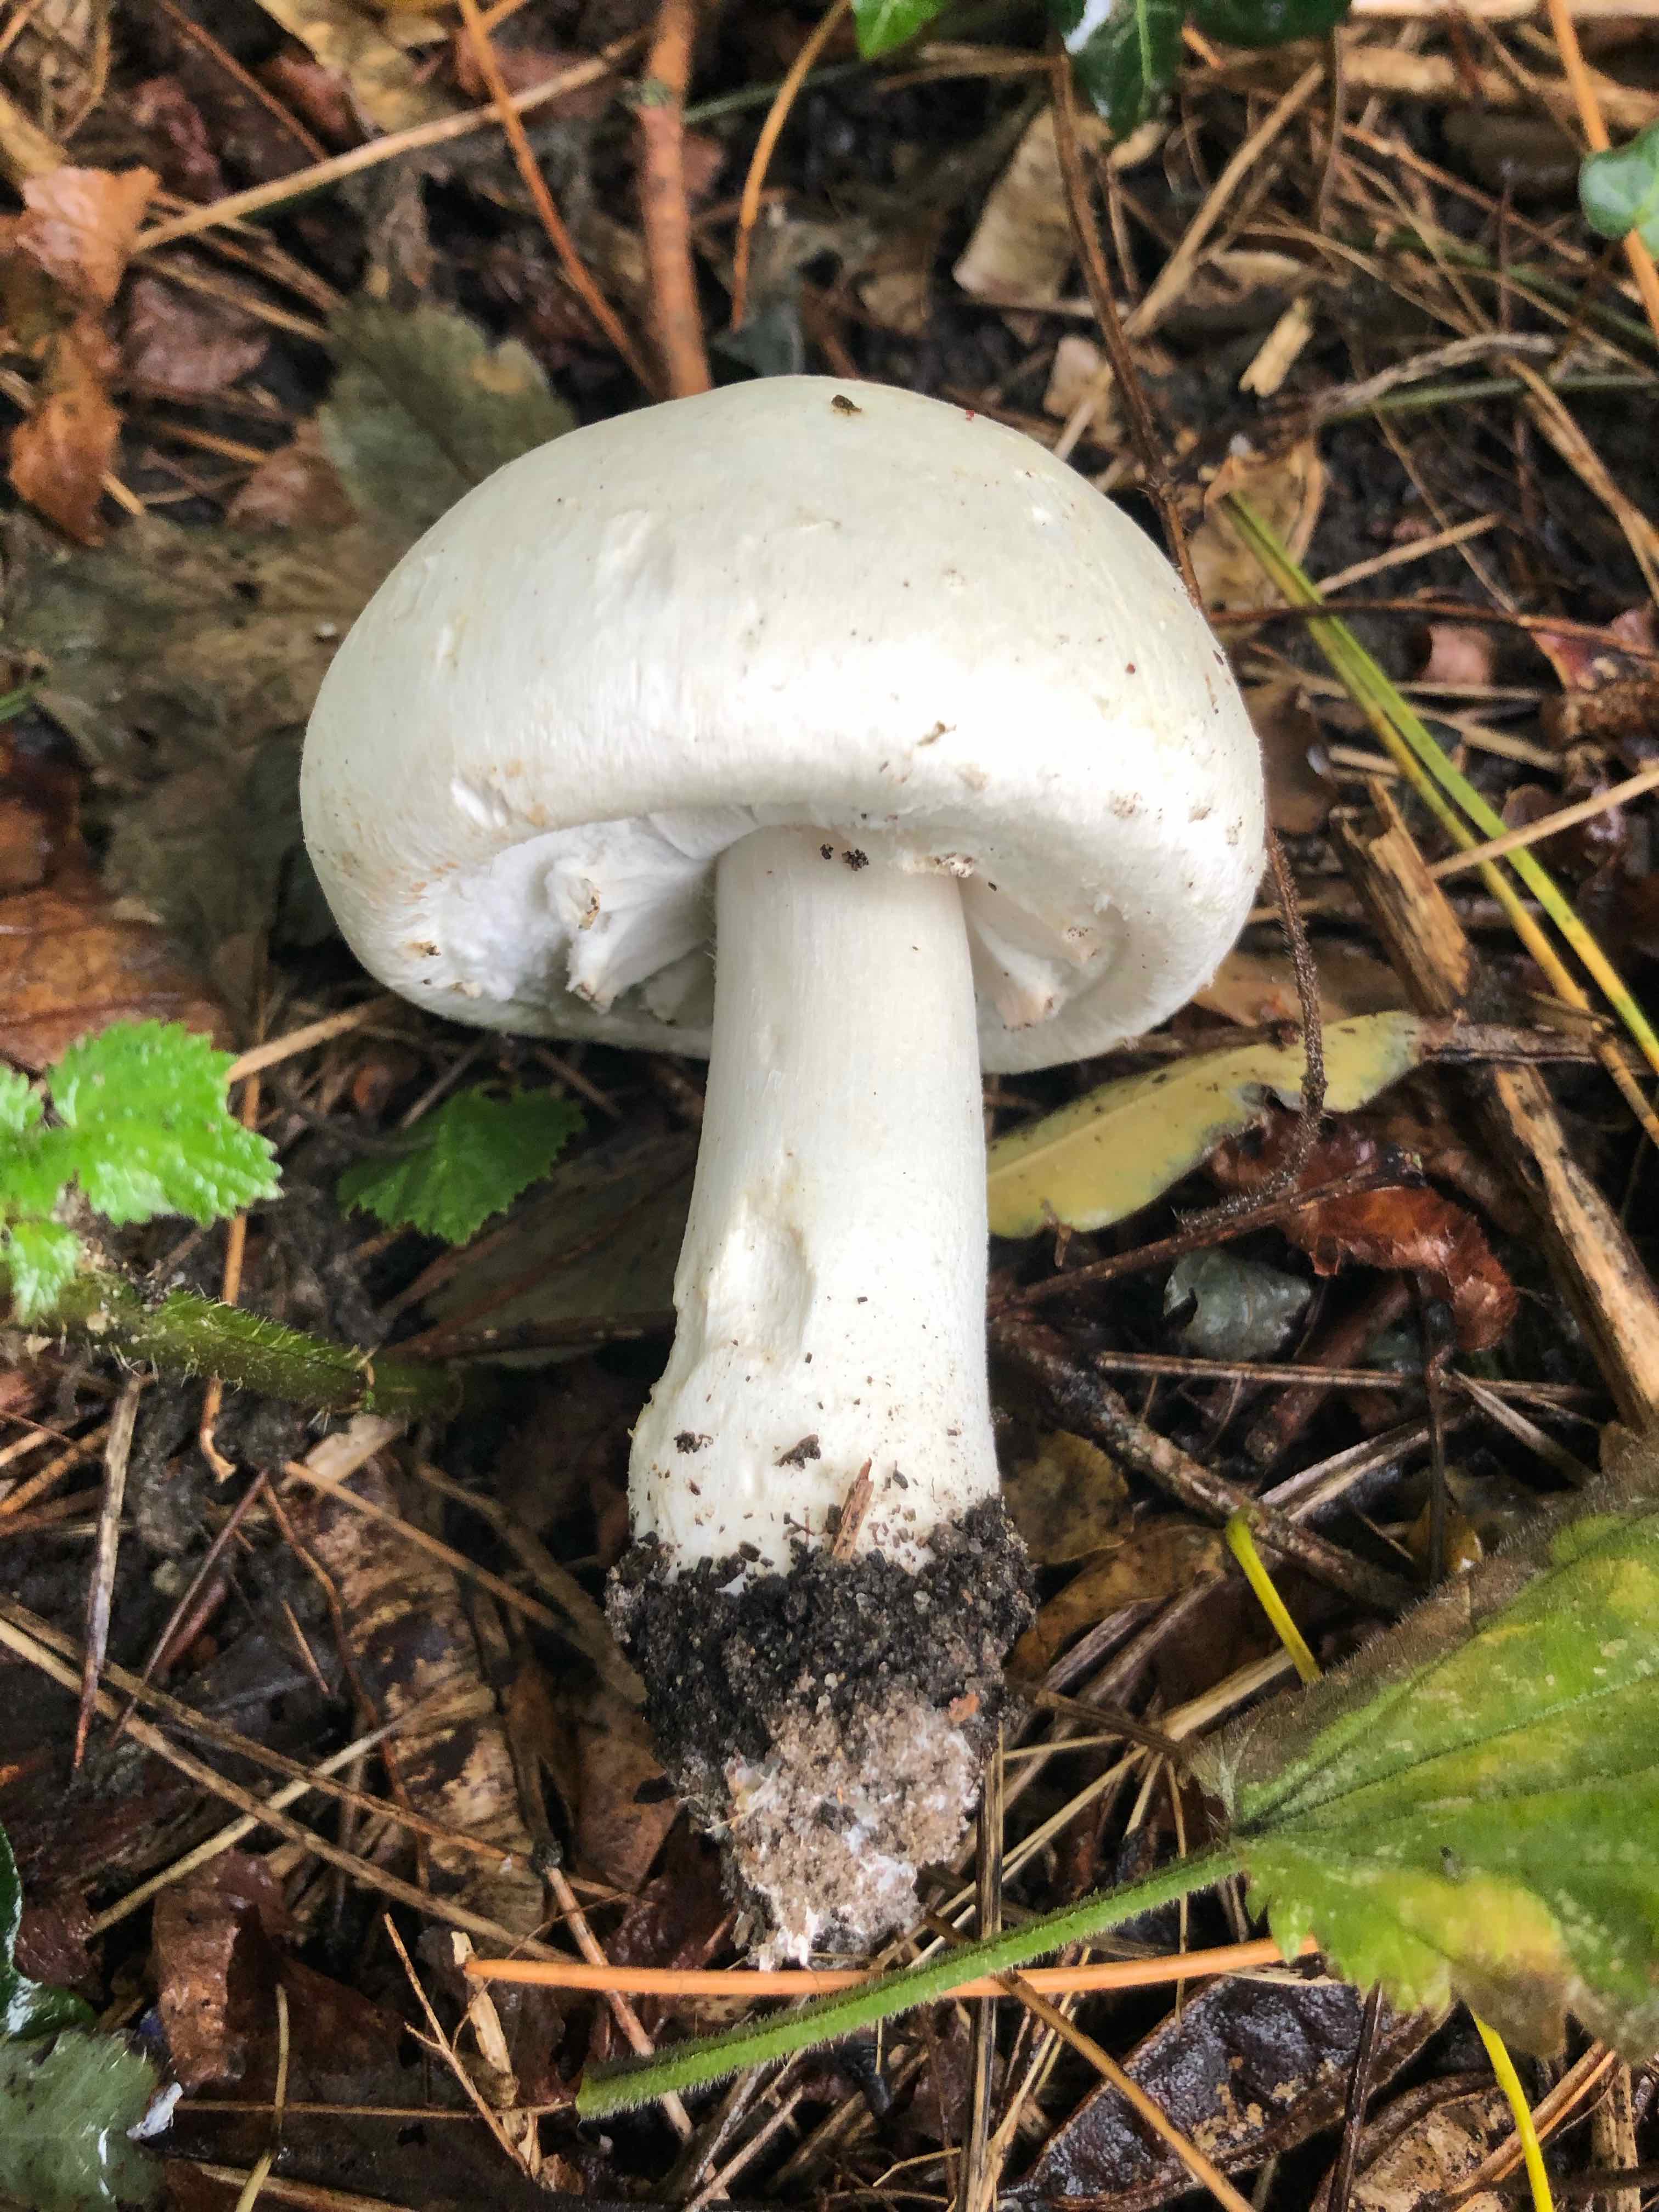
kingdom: Fungi
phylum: Basidiomycota
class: Agaricomycetes
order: Agaricales
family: Agaricaceae
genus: Agaricus
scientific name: Agaricus arvensis
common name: ager-champignon
